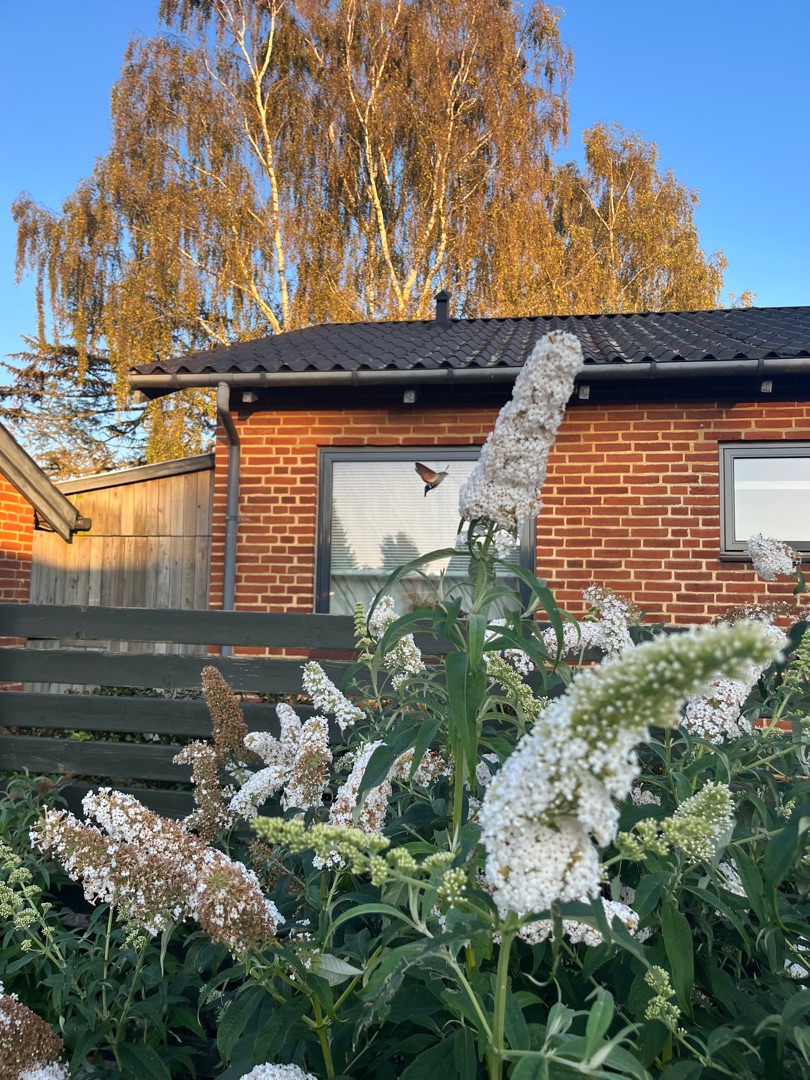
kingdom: Animalia
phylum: Arthropoda
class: Insecta
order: Lepidoptera
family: Sphingidae
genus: Macroglossum
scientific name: Macroglossum stellatarum
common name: Duehale
